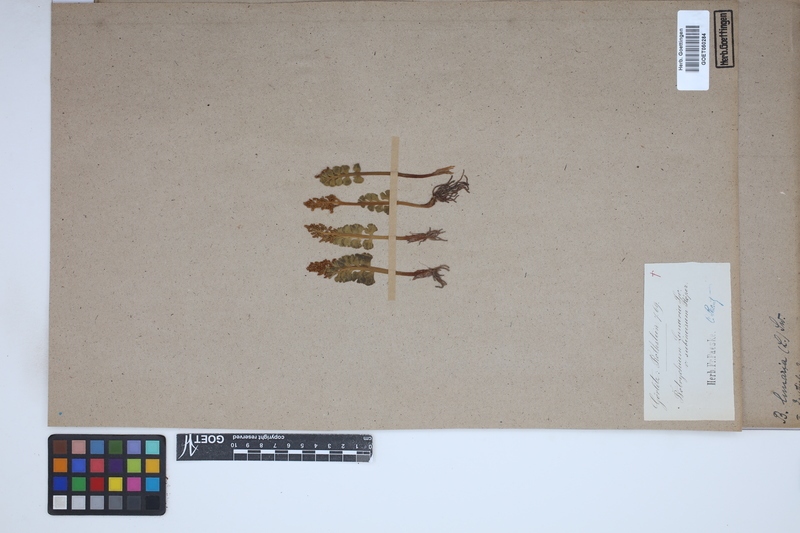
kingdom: Plantae
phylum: Tracheophyta
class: Polypodiopsida
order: Ophioglossales
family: Ophioglossaceae
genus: Botrychium
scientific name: Botrychium lunaria
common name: Moonwort
